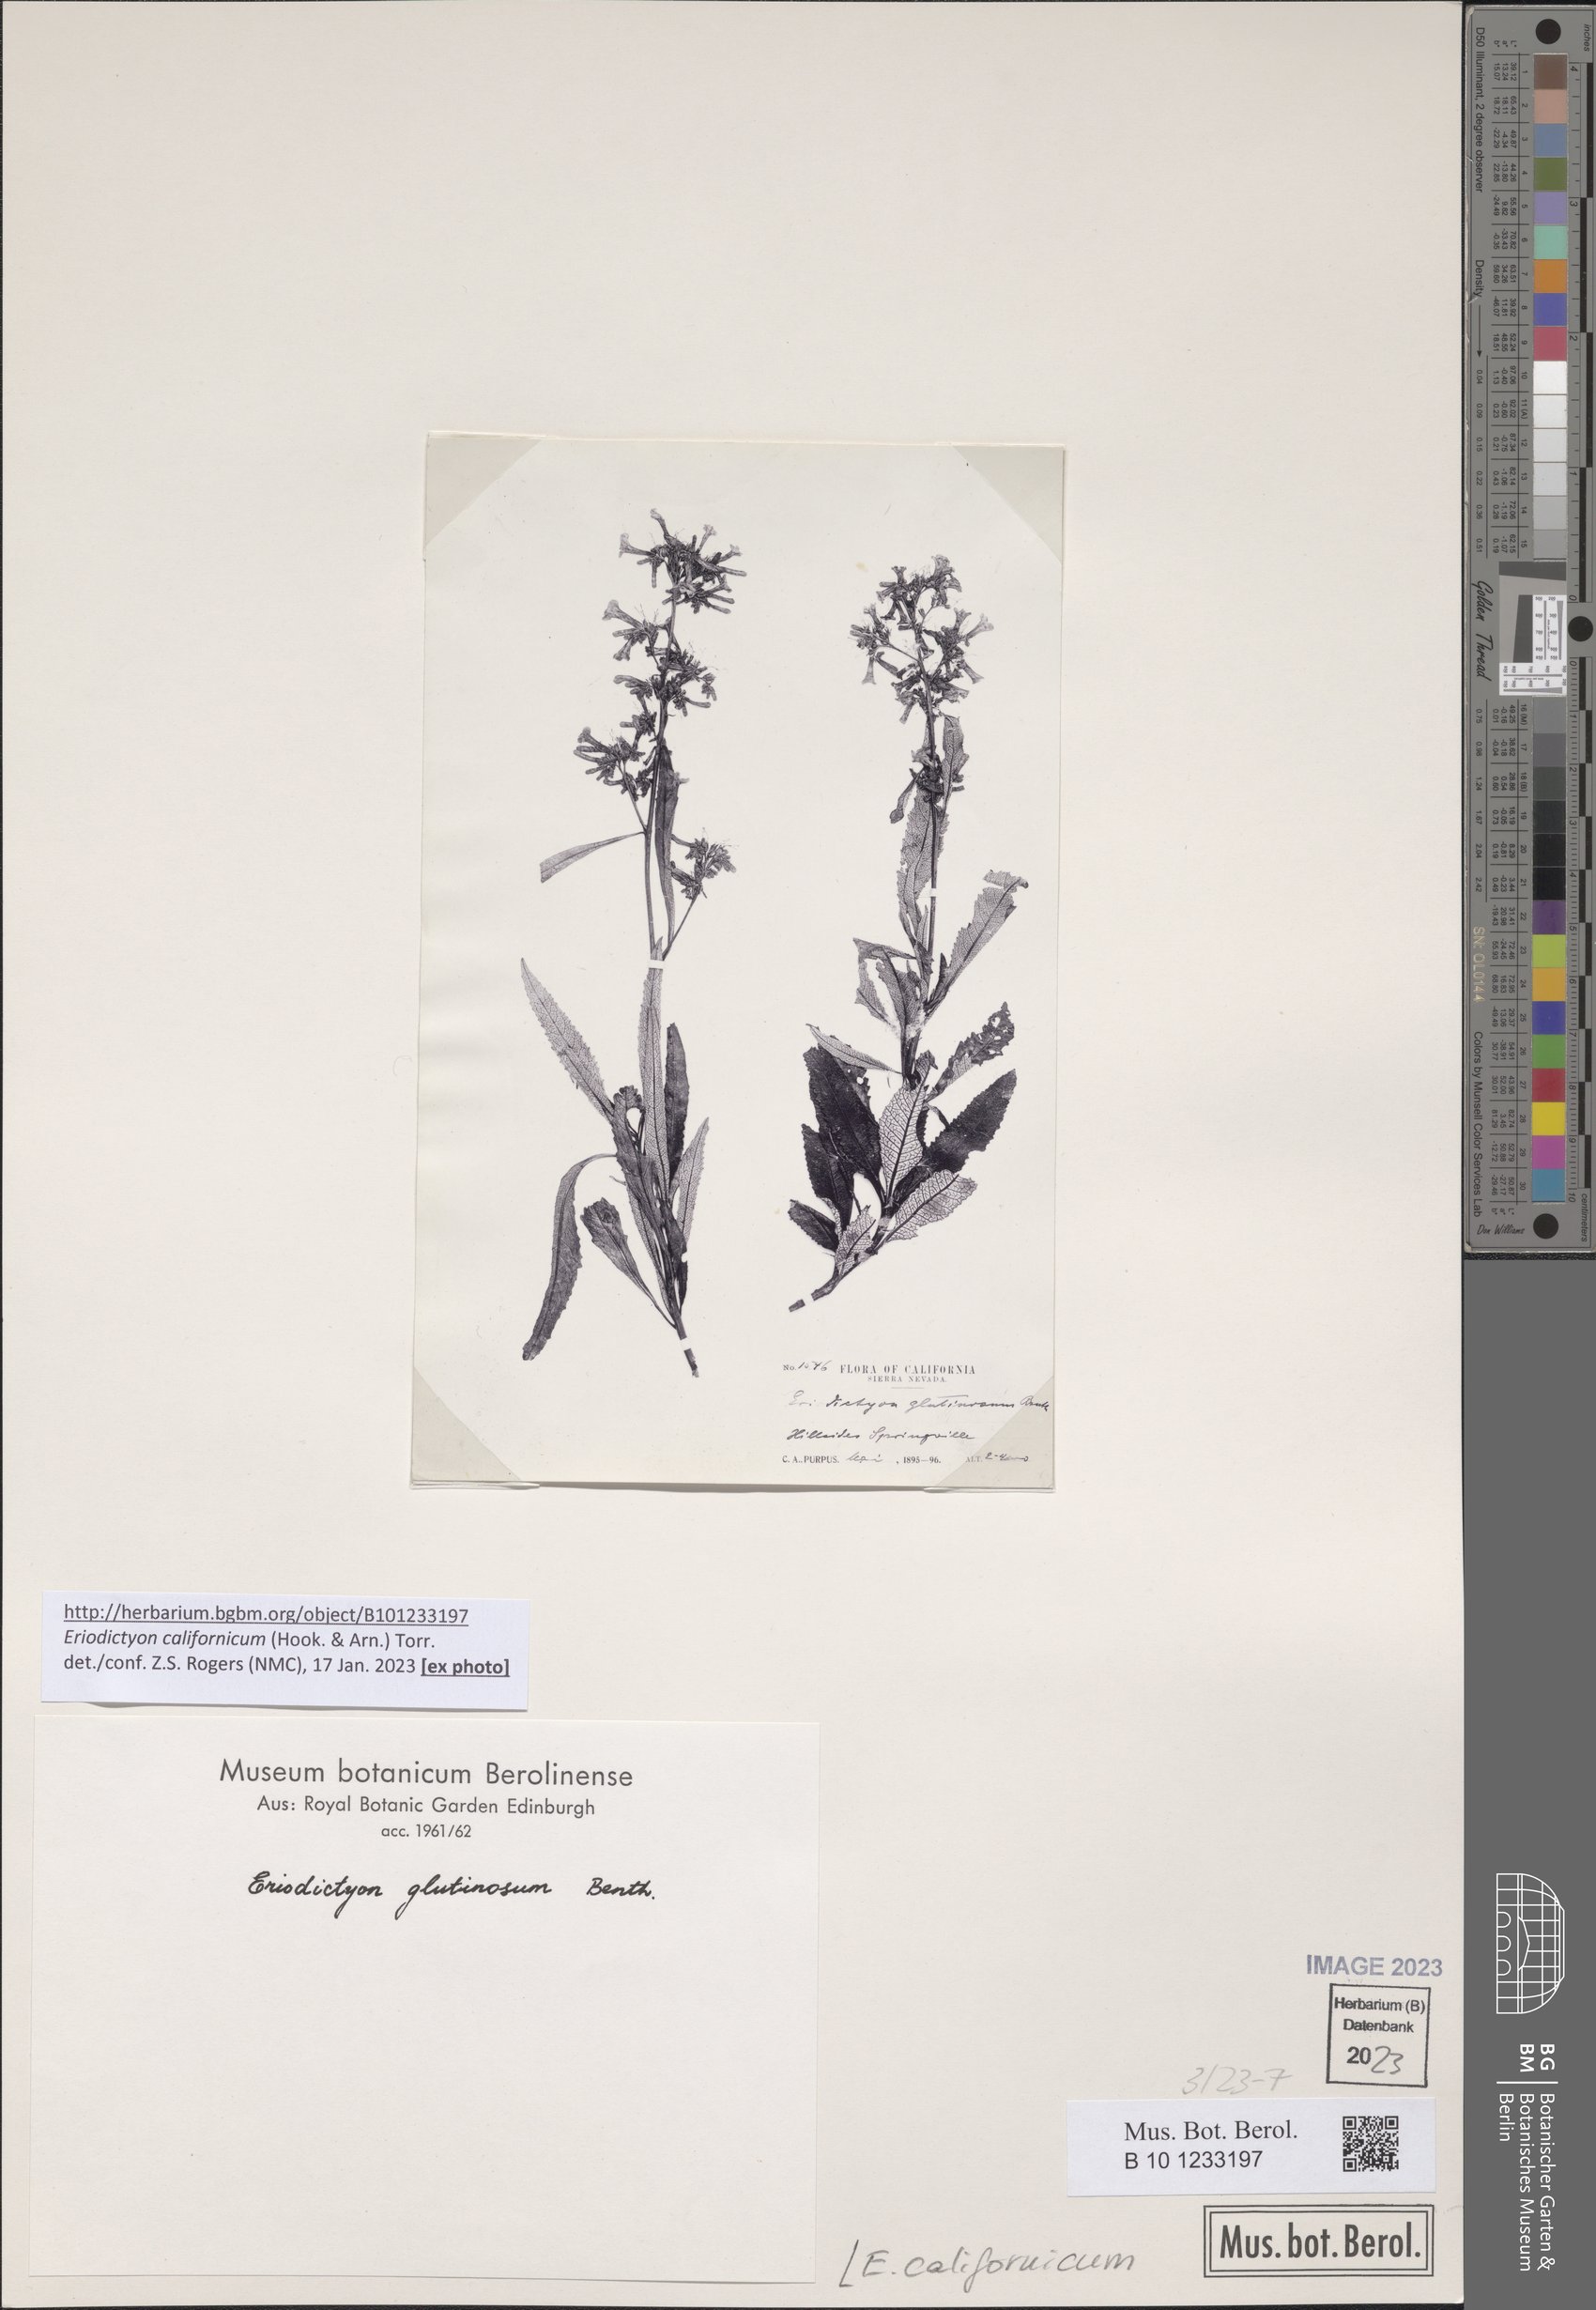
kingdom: Plantae
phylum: Tracheophyta
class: Magnoliopsida
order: Boraginales
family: Namaceae
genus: Eriodictyon
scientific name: Eriodictyon crassifolium
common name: Thick-leaf yerba-santa
